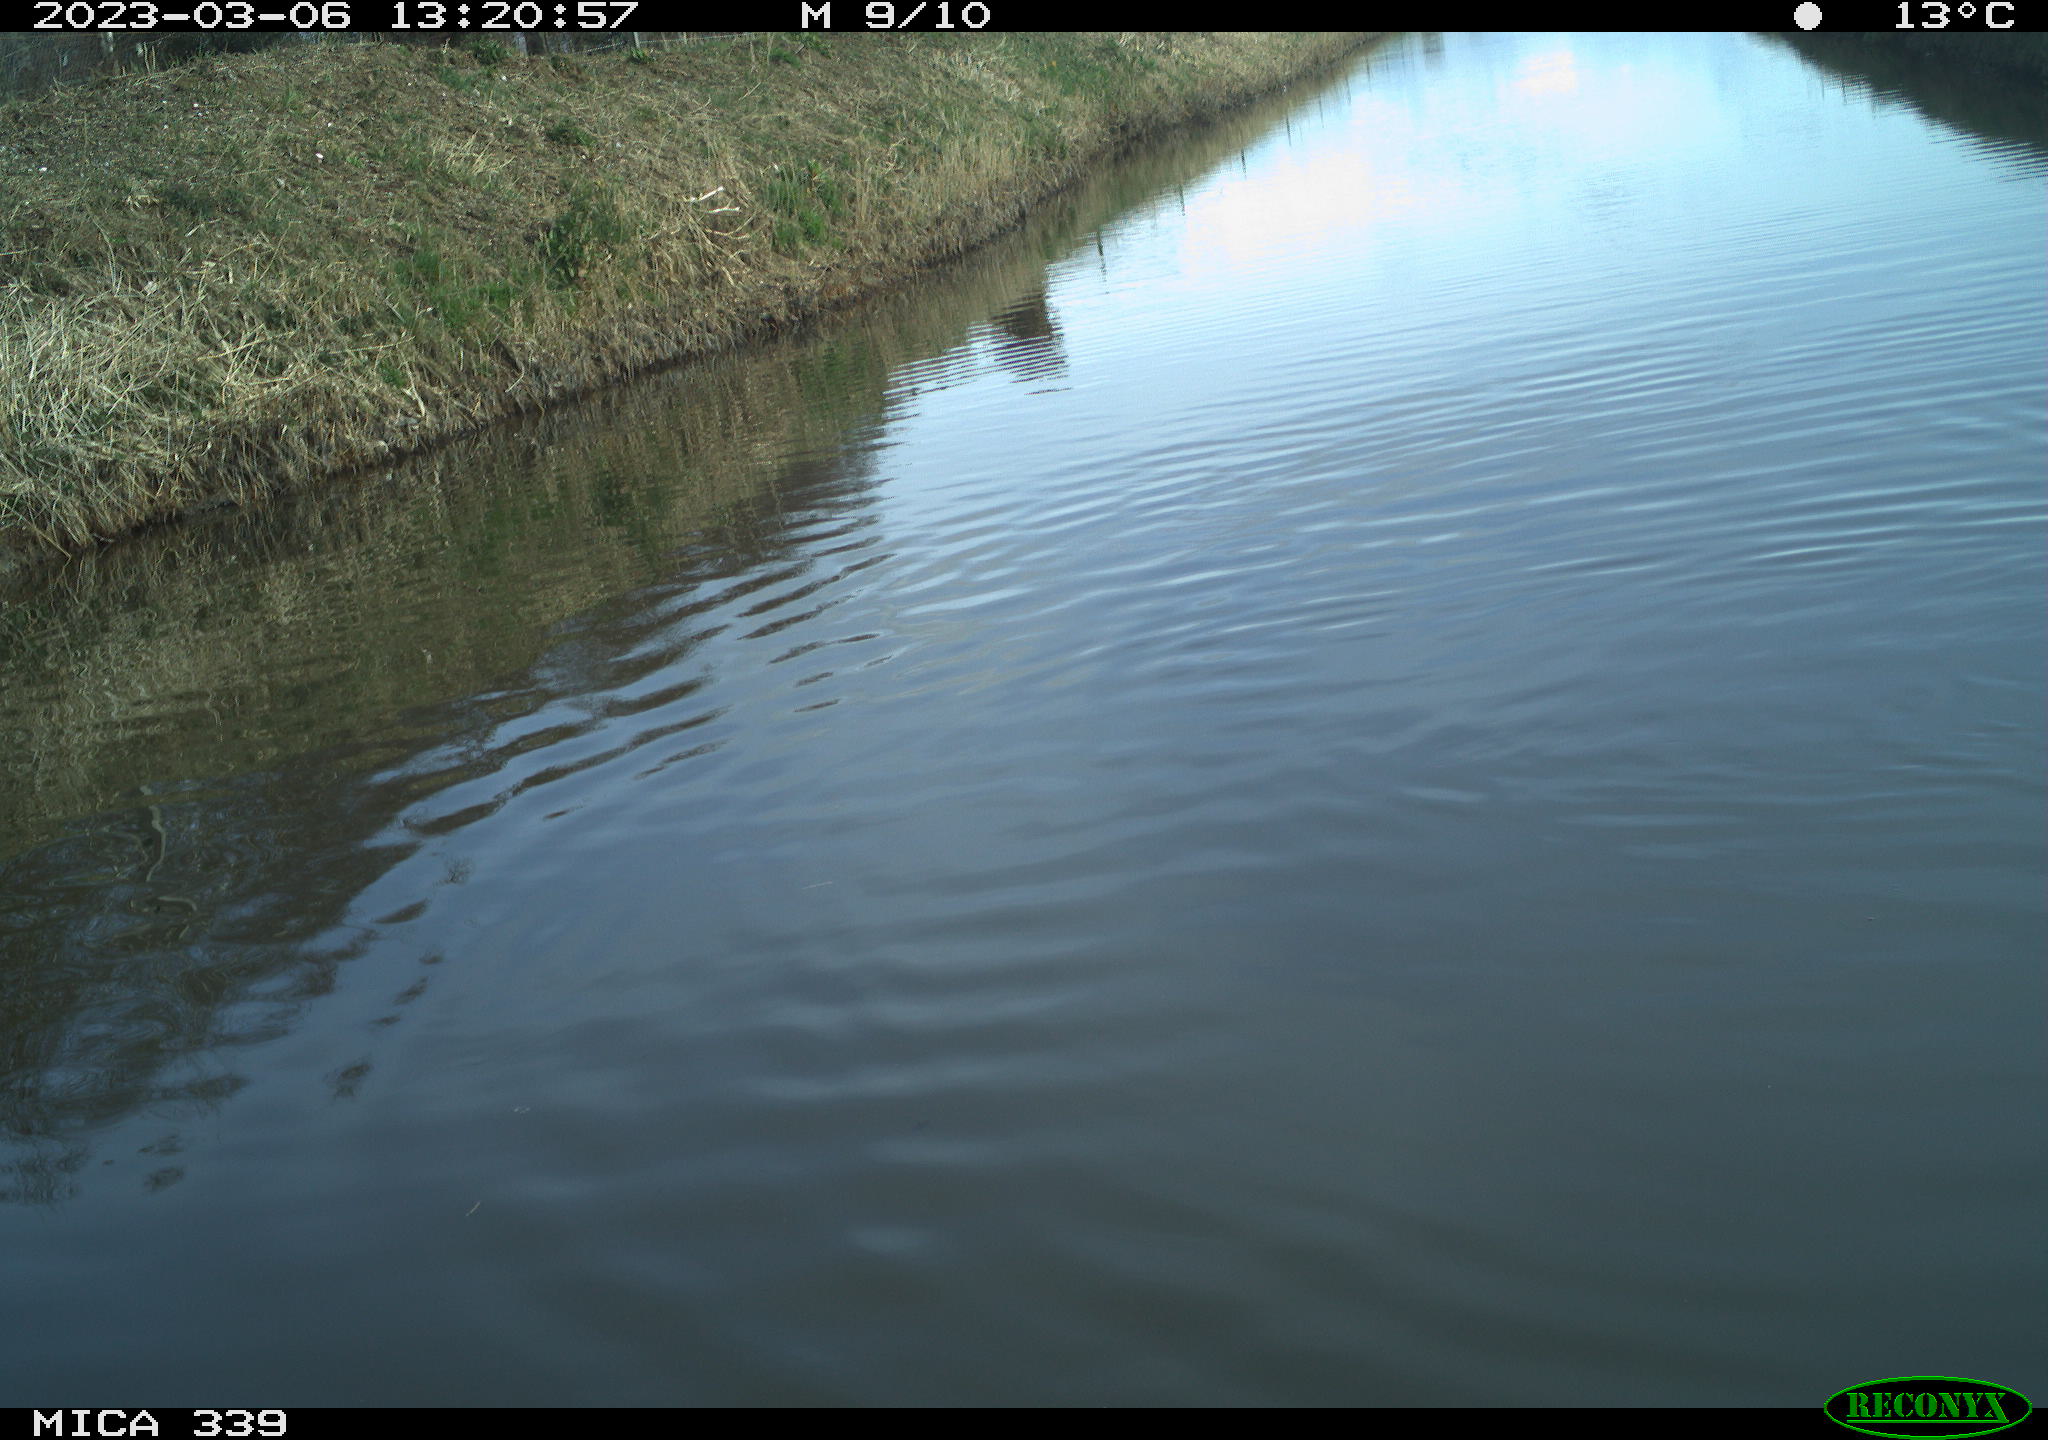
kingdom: Animalia
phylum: Chordata
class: Aves
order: Gruiformes
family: Rallidae
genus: Fulica
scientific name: Fulica atra
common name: Eurasian coot
